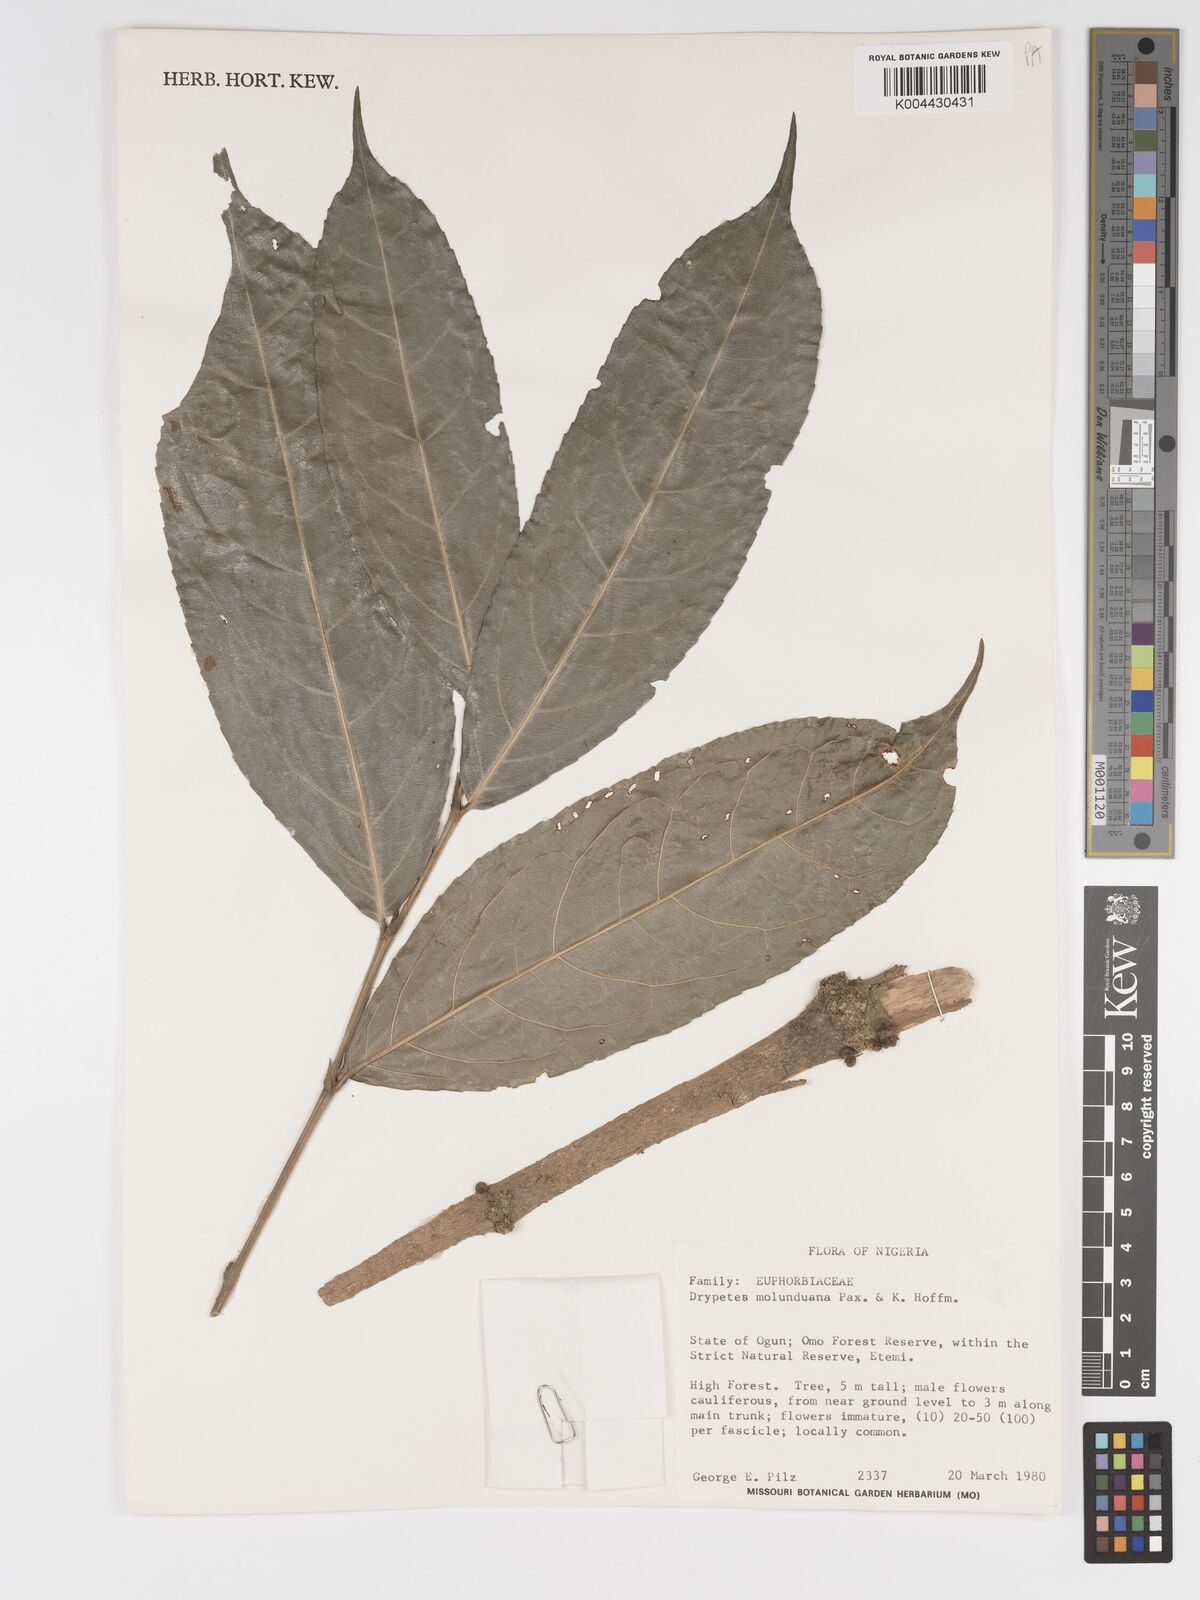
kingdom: Plantae
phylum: Tracheophyta
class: Magnoliopsida
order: Malpighiales
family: Putranjivaceae
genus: Drypetes
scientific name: Drypetes molunduana
